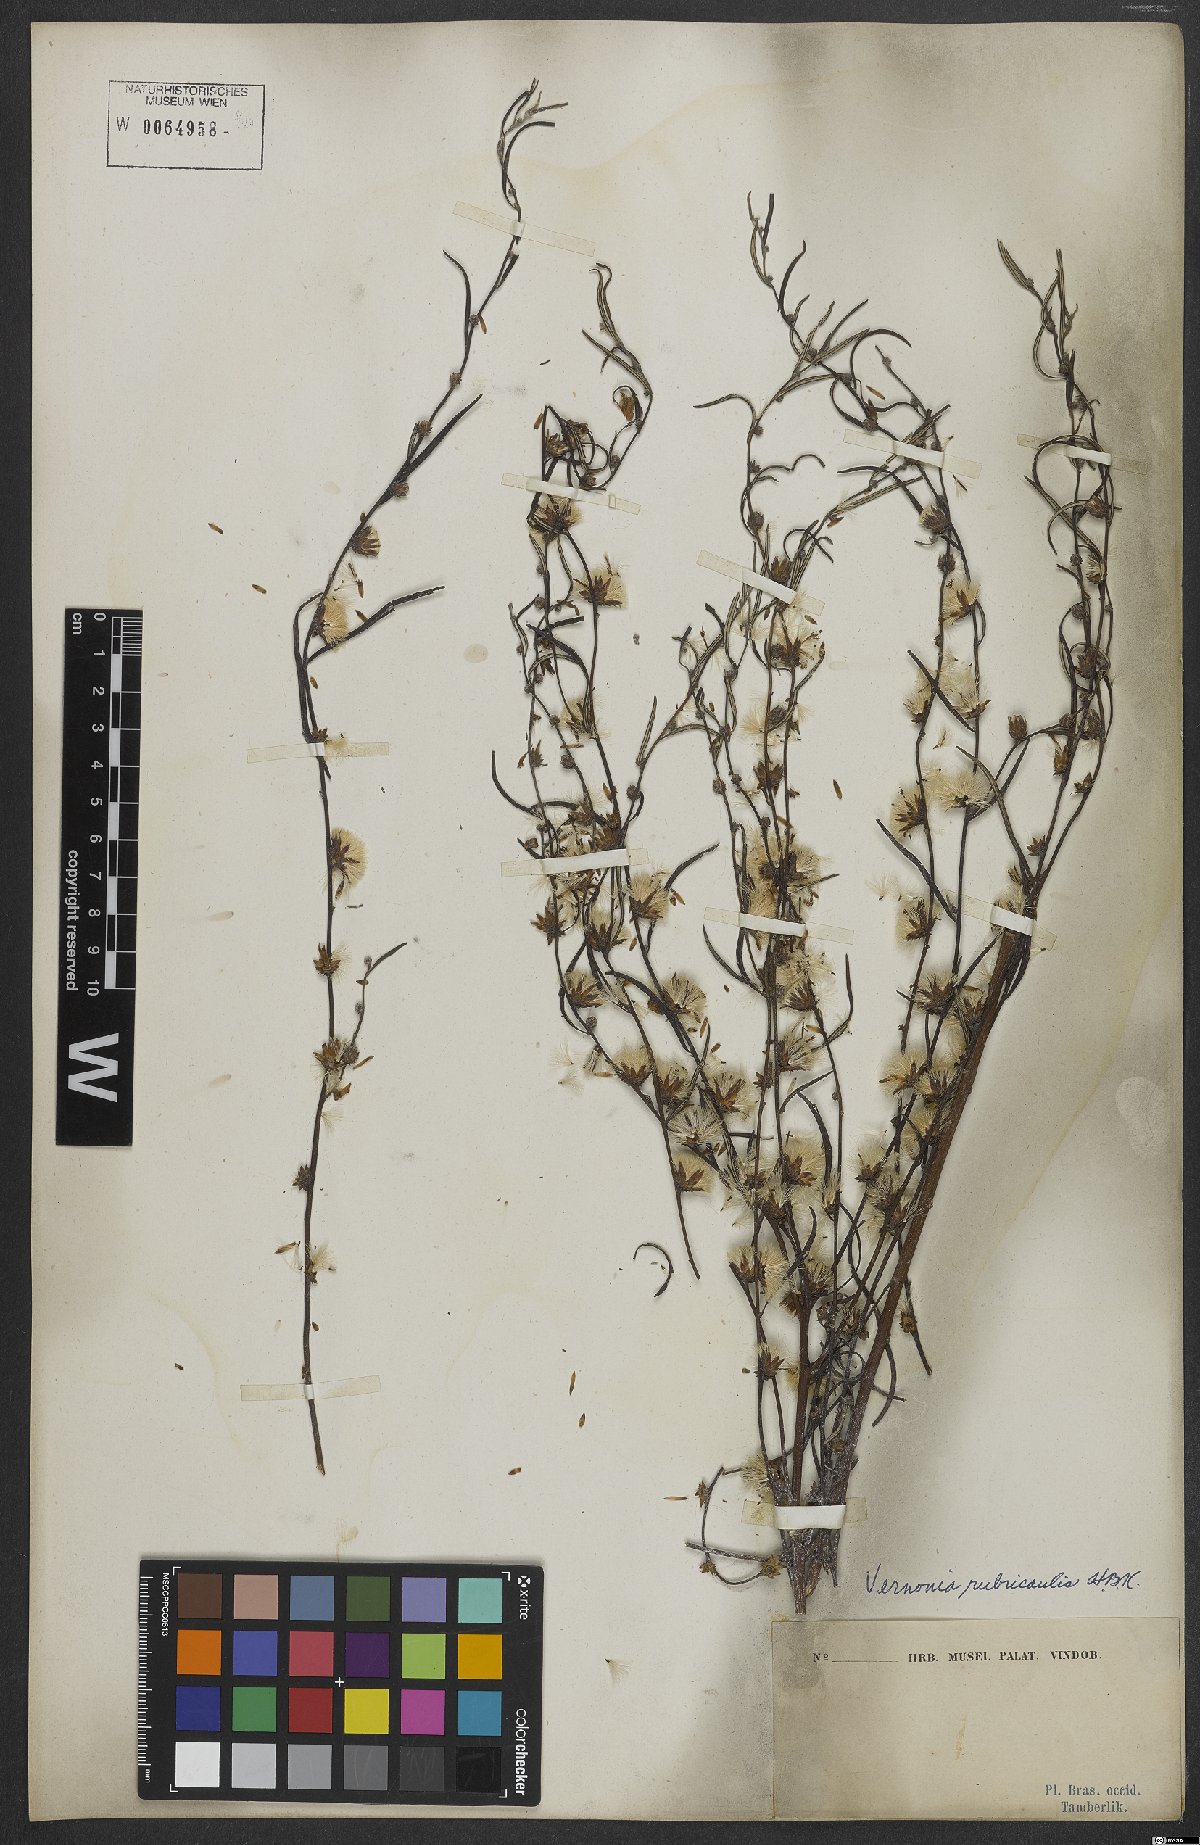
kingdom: Plantae
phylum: Tracheophyta
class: Magnoliopsida
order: Asterales
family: Asteraceae
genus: Lessingianthus
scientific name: Lessingianthus rubricaulis
